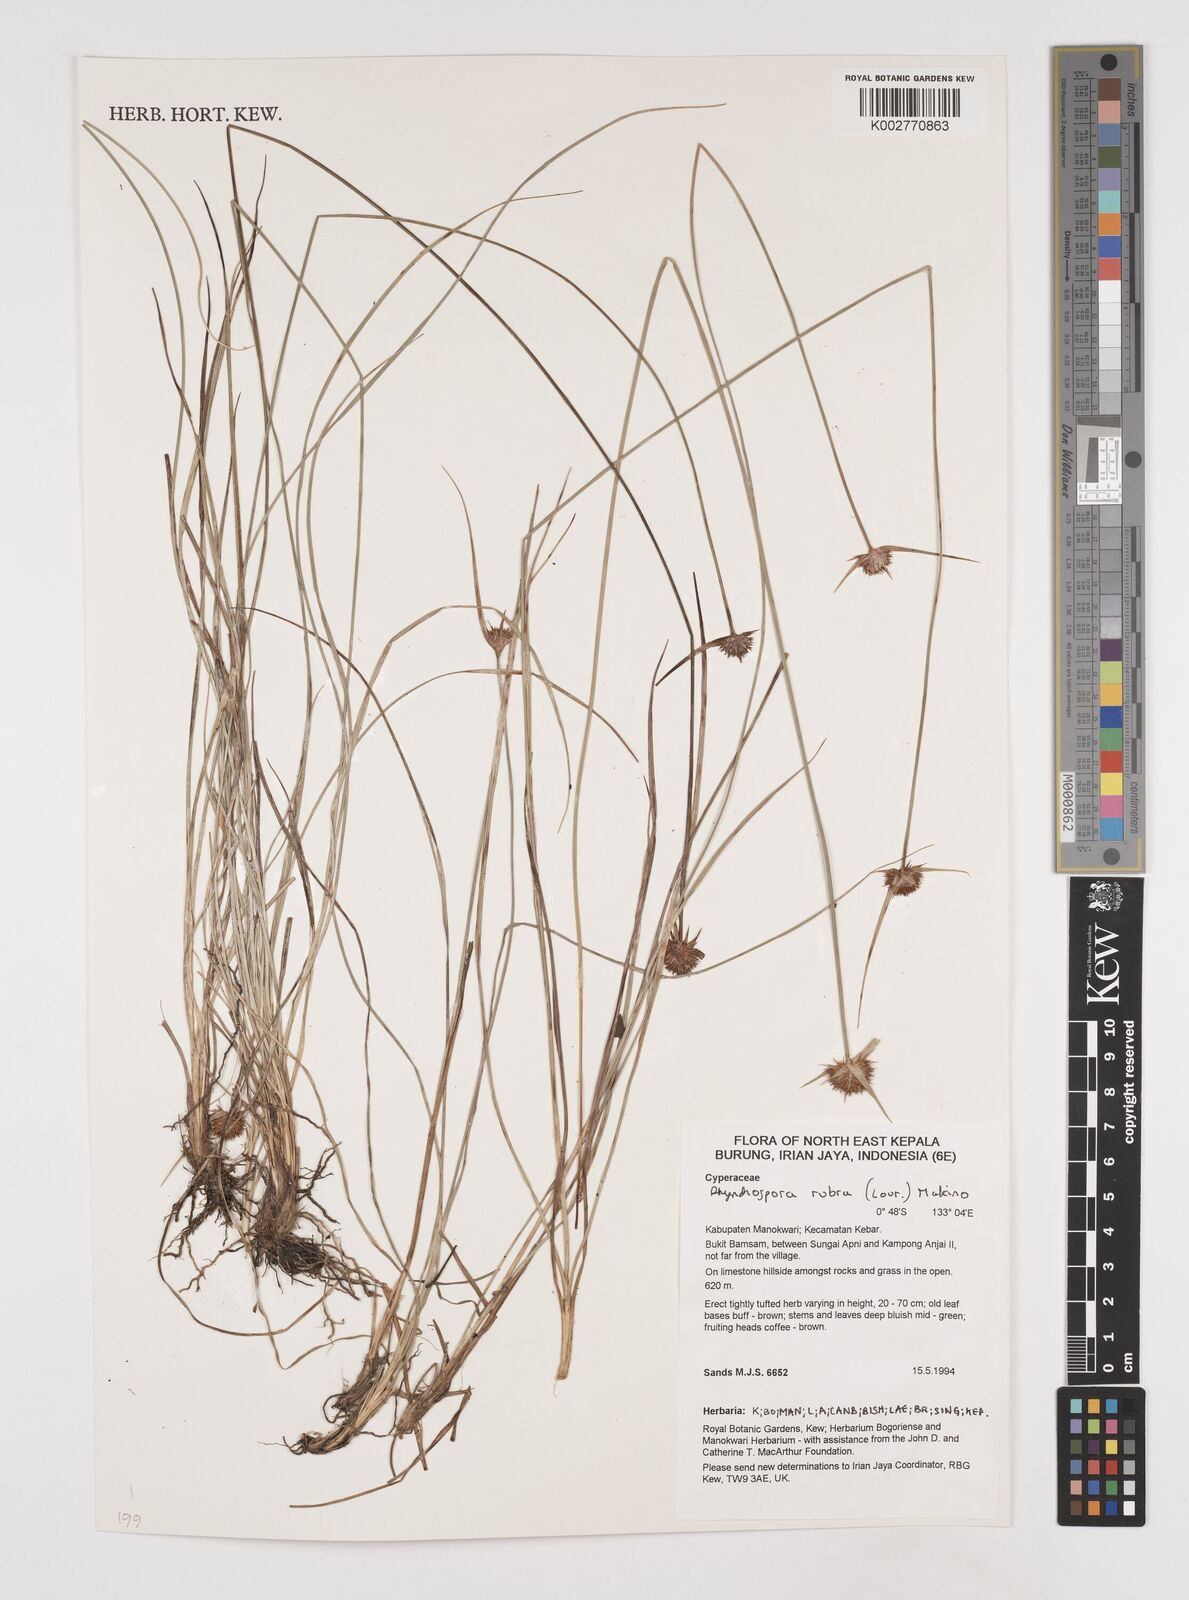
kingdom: Plantae
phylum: Tracheophyta
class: Liliopsida
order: Poales
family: Cyperaceae
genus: Rhynchospora
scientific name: Rhynchospora rubra
